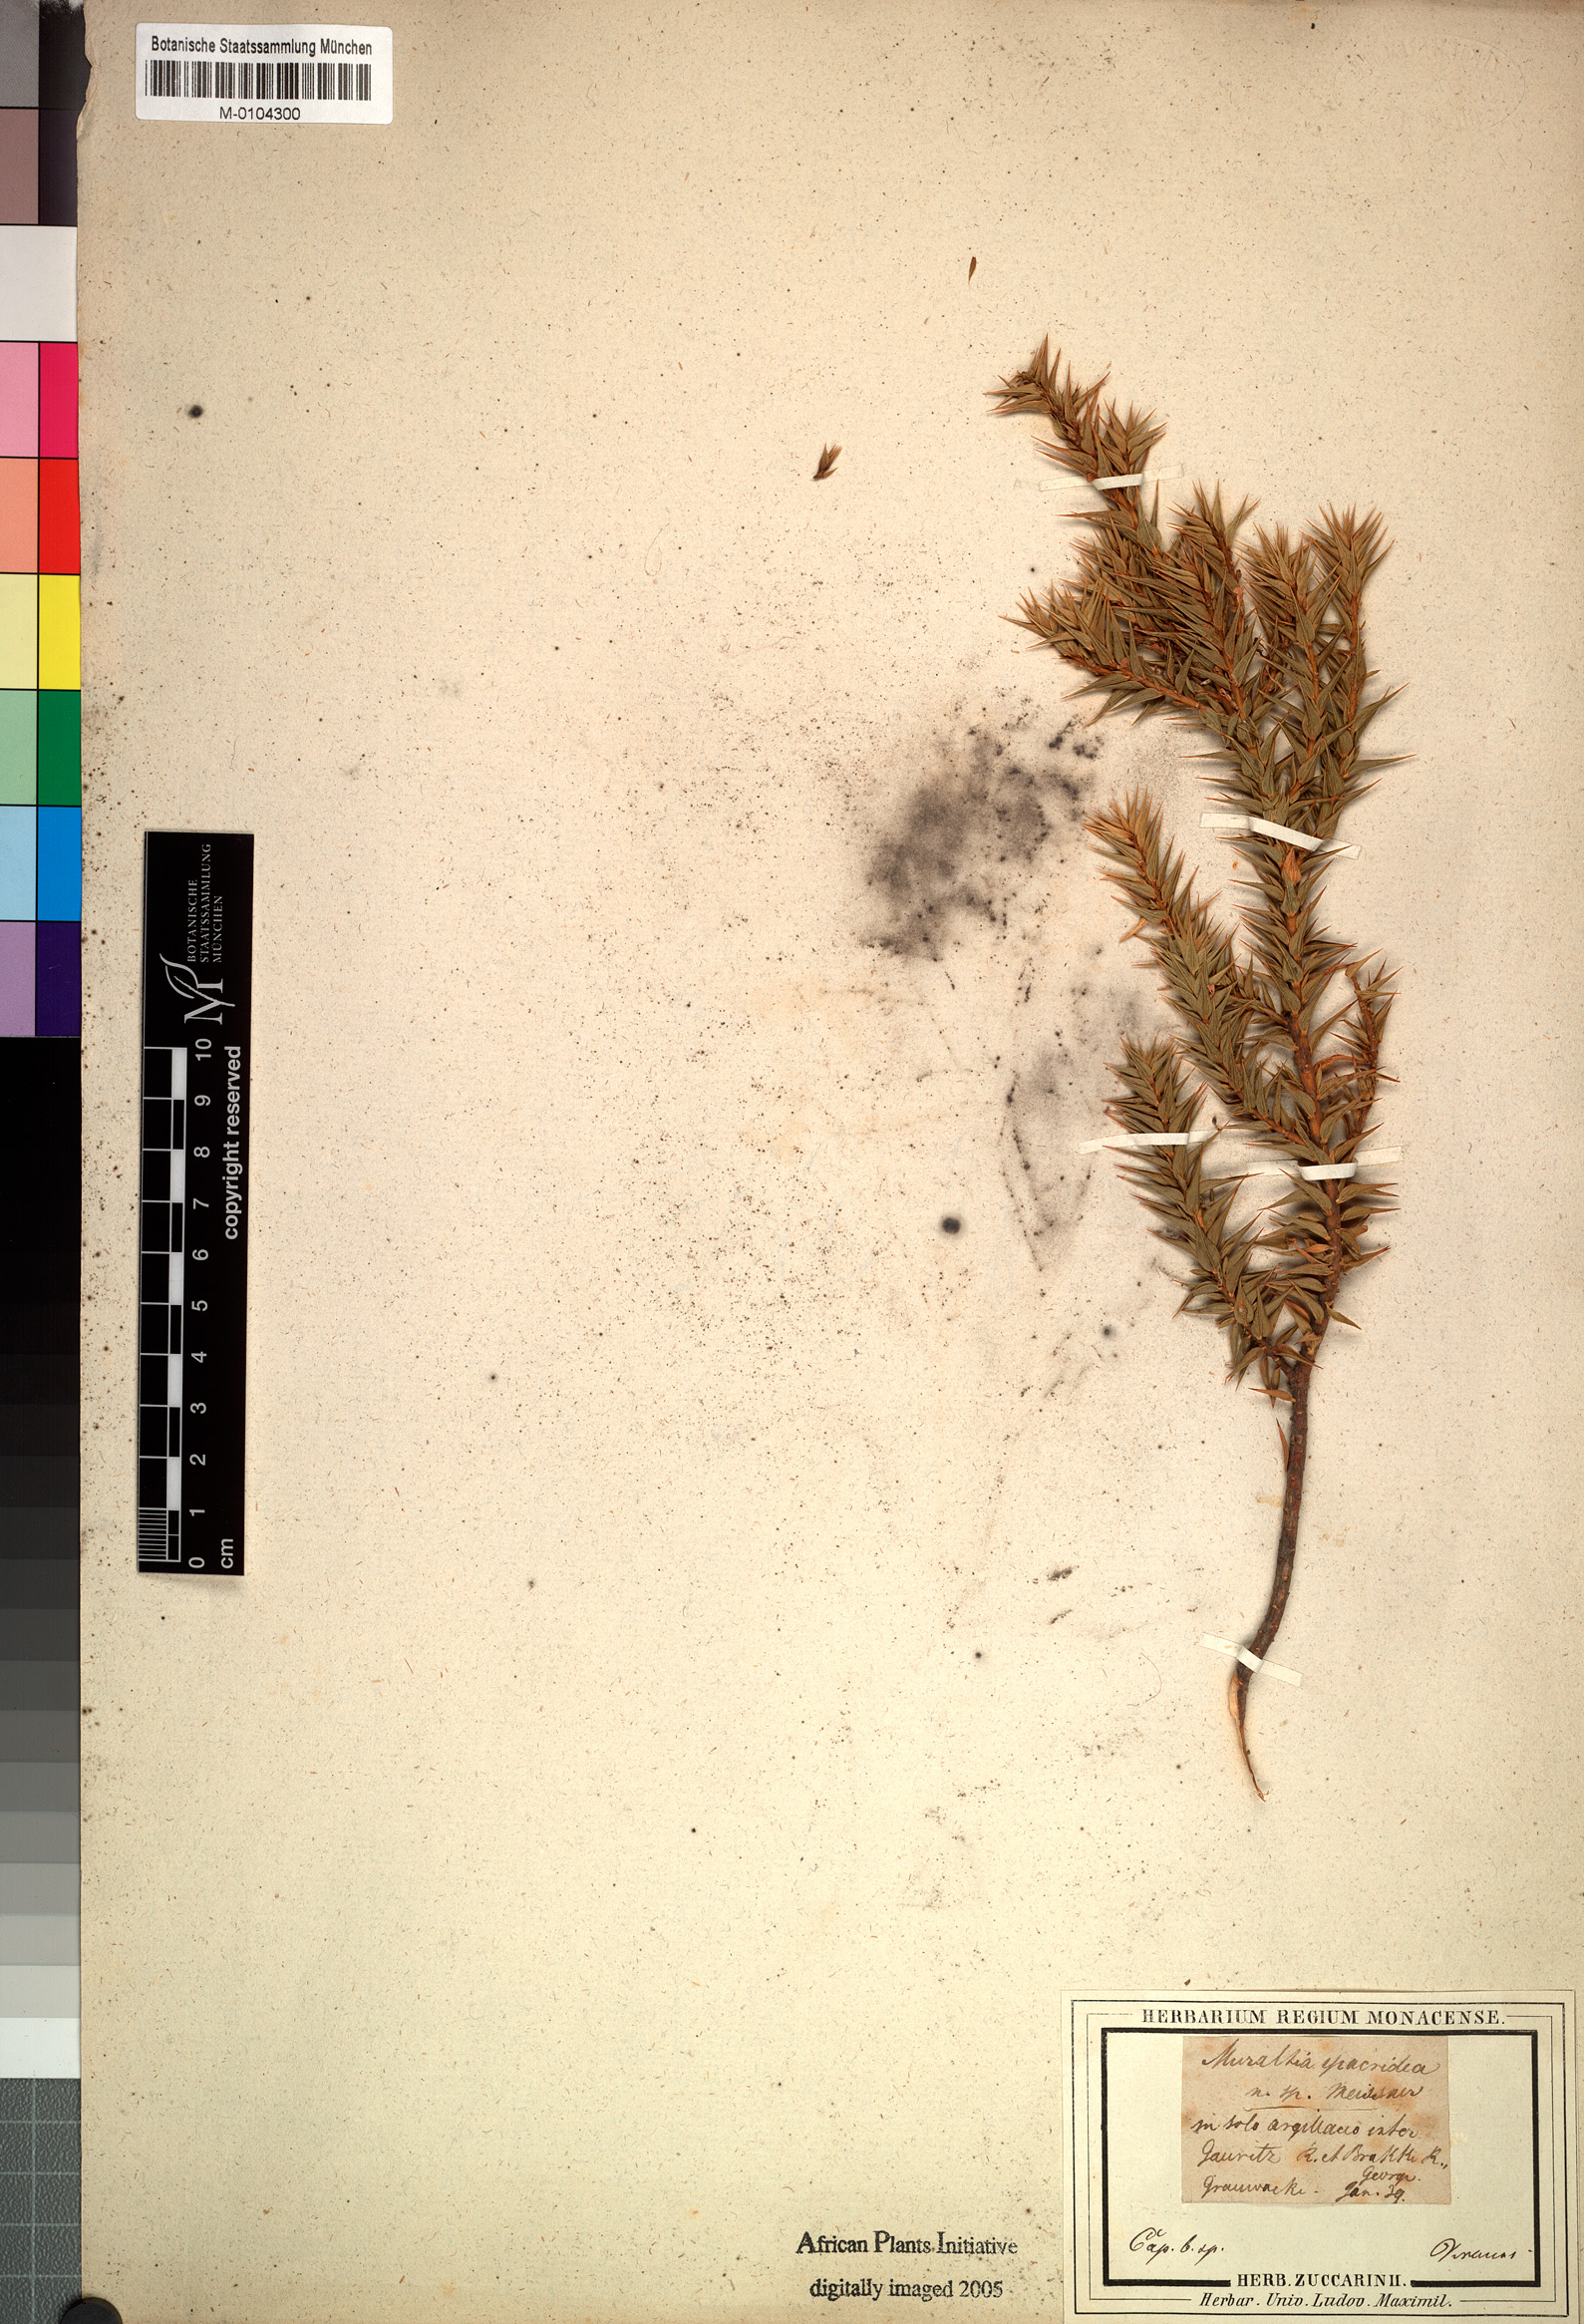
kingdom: Plantae
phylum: Tracheophyta
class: Magnoliopsida
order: Fabales
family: Polygalaceae
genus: Muraltia
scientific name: Muraltia
